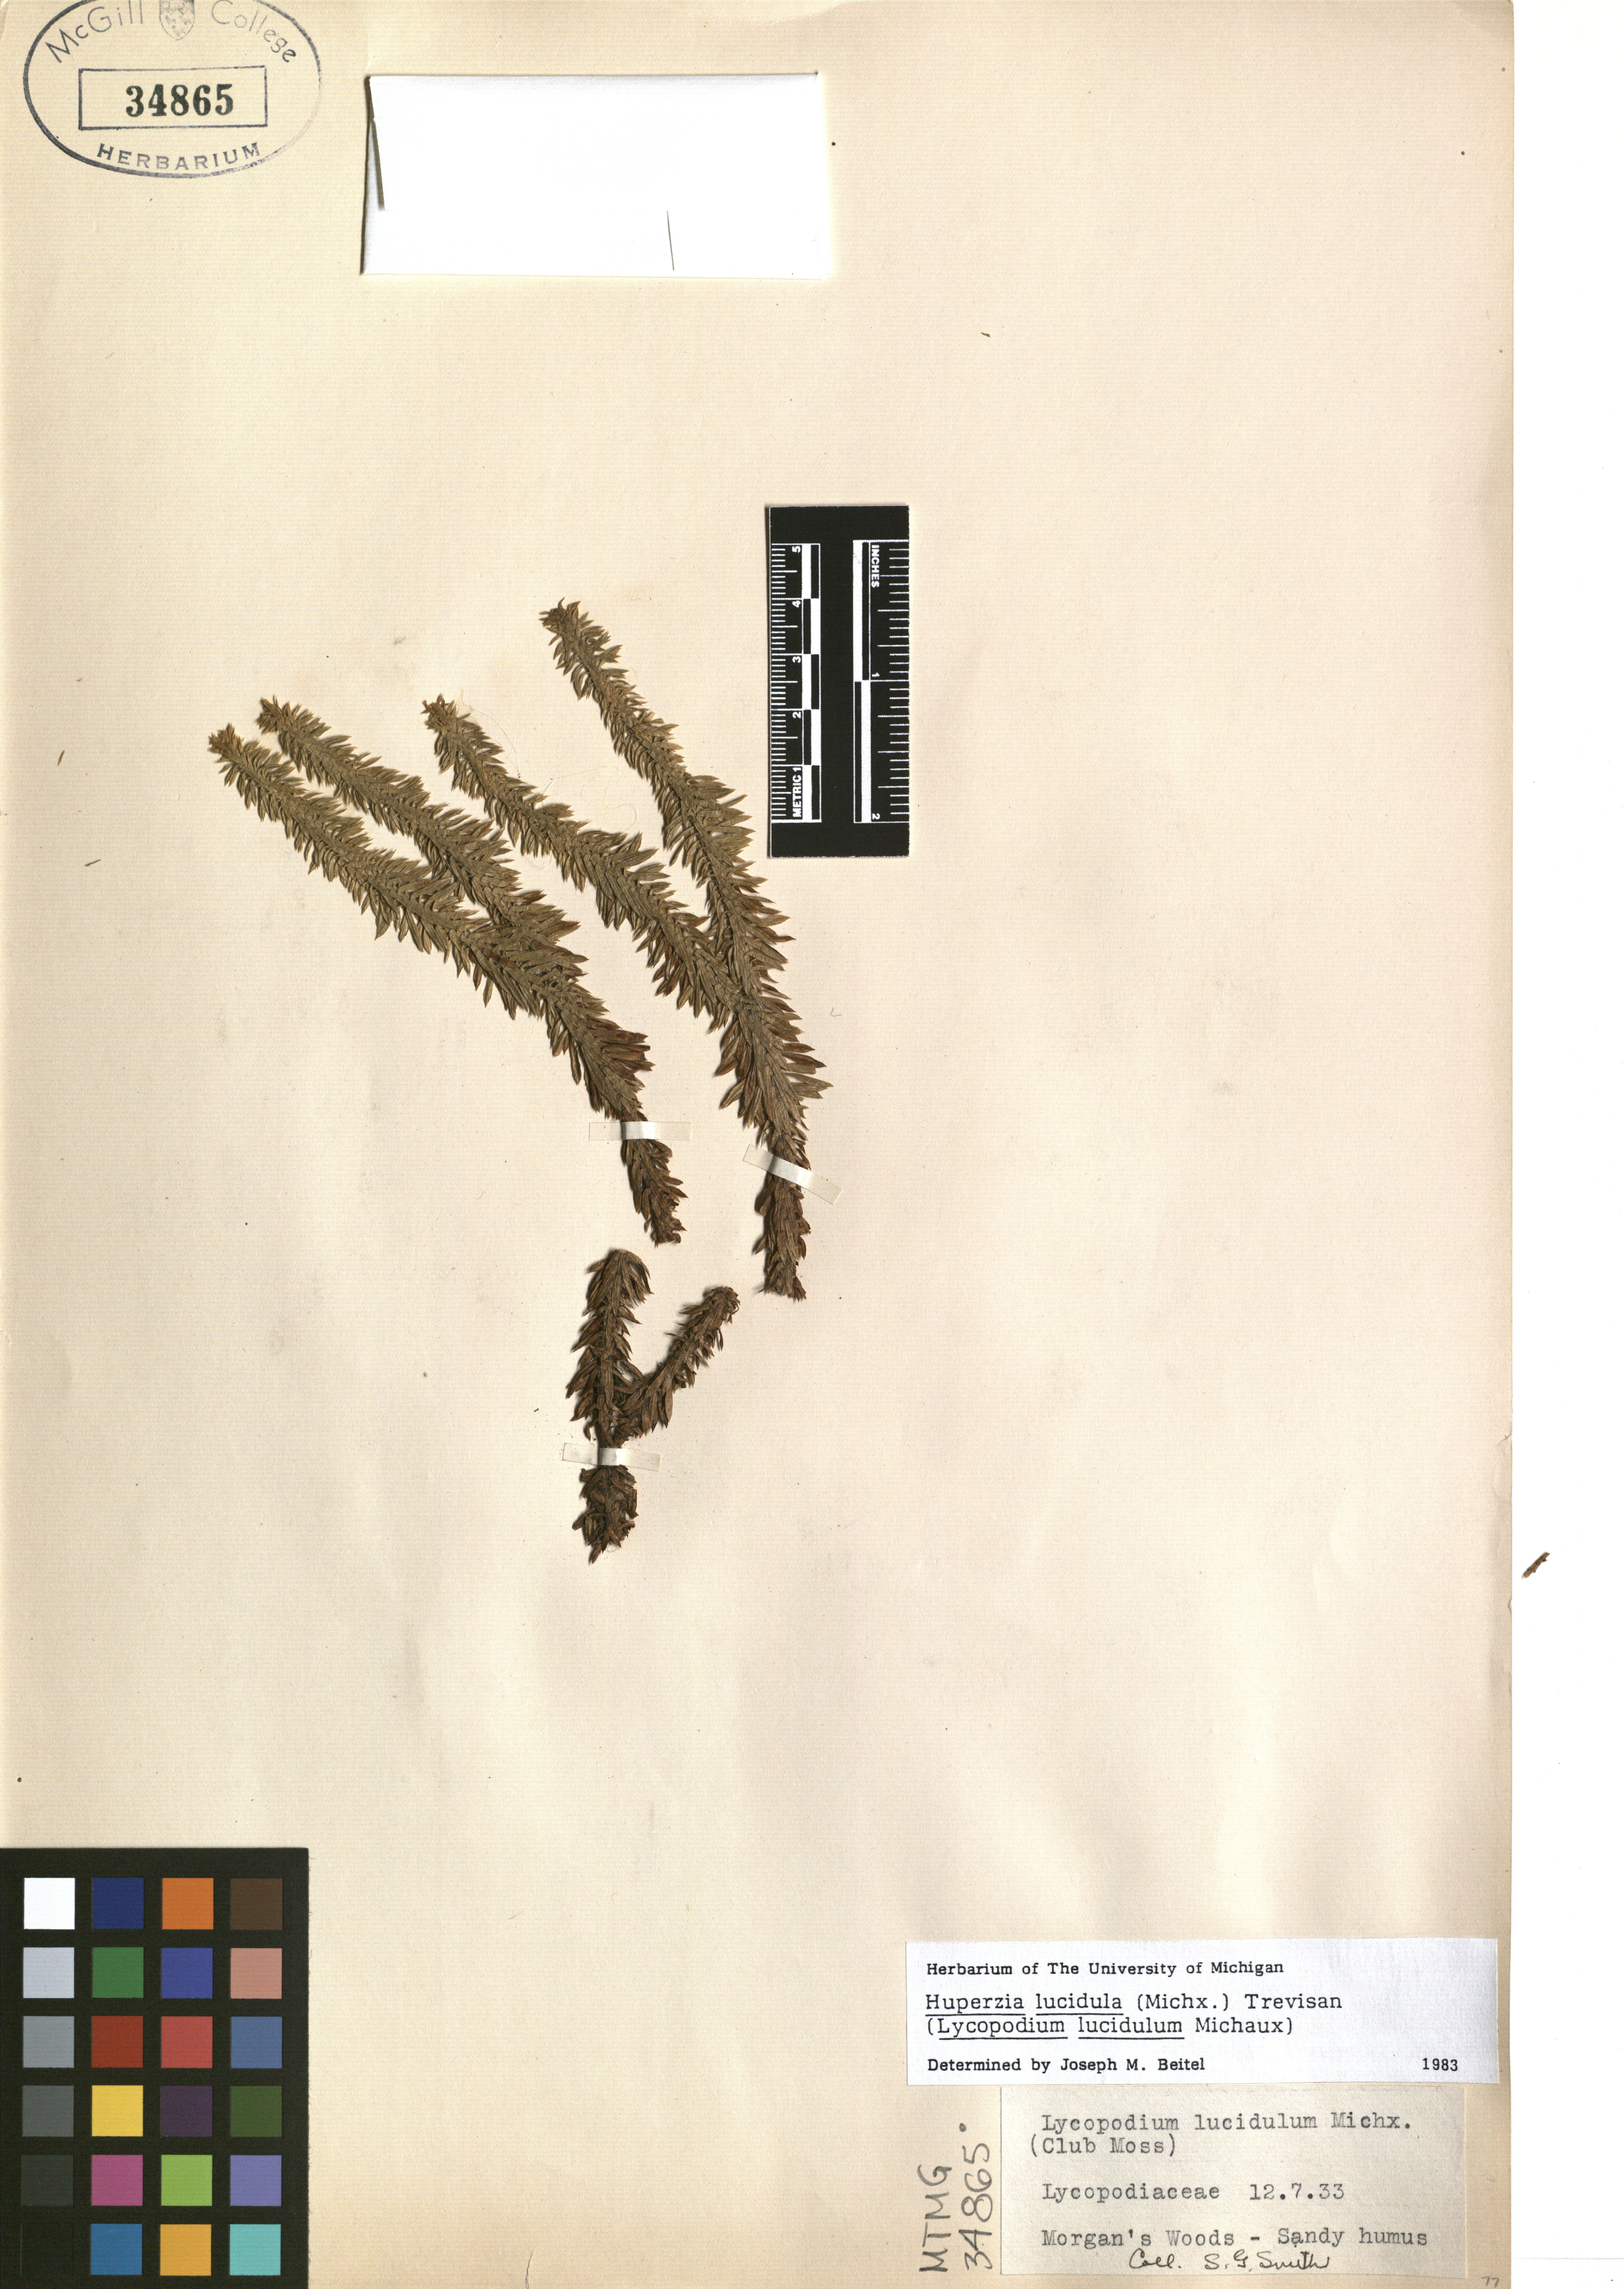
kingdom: Plantae
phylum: Tracheophyta
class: Lycopodiopsida
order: Lycopodiales
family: Lycopodiaceae
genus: Huperzia
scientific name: Huperzia lucidula
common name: Shining clubmoss
